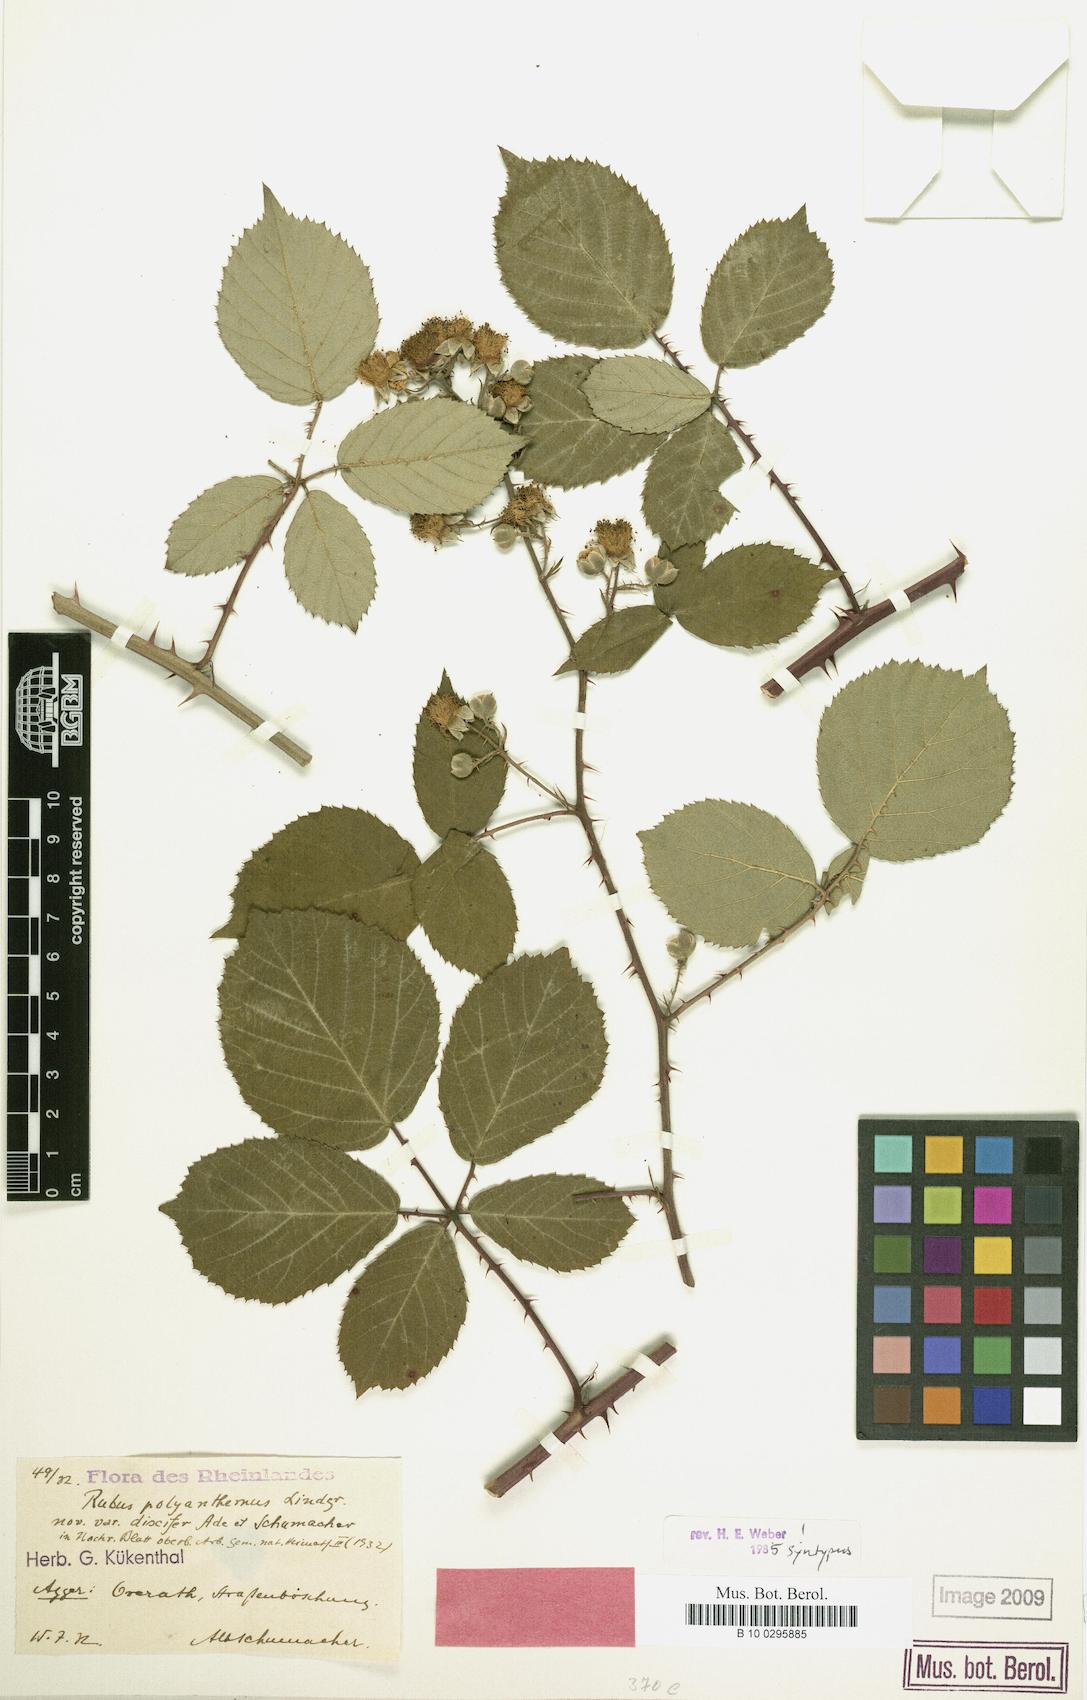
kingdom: Plantae
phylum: Tracheophyta
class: Magnoliopsida
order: Rosales
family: Rosaceae
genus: Rubus
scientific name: Rubus
